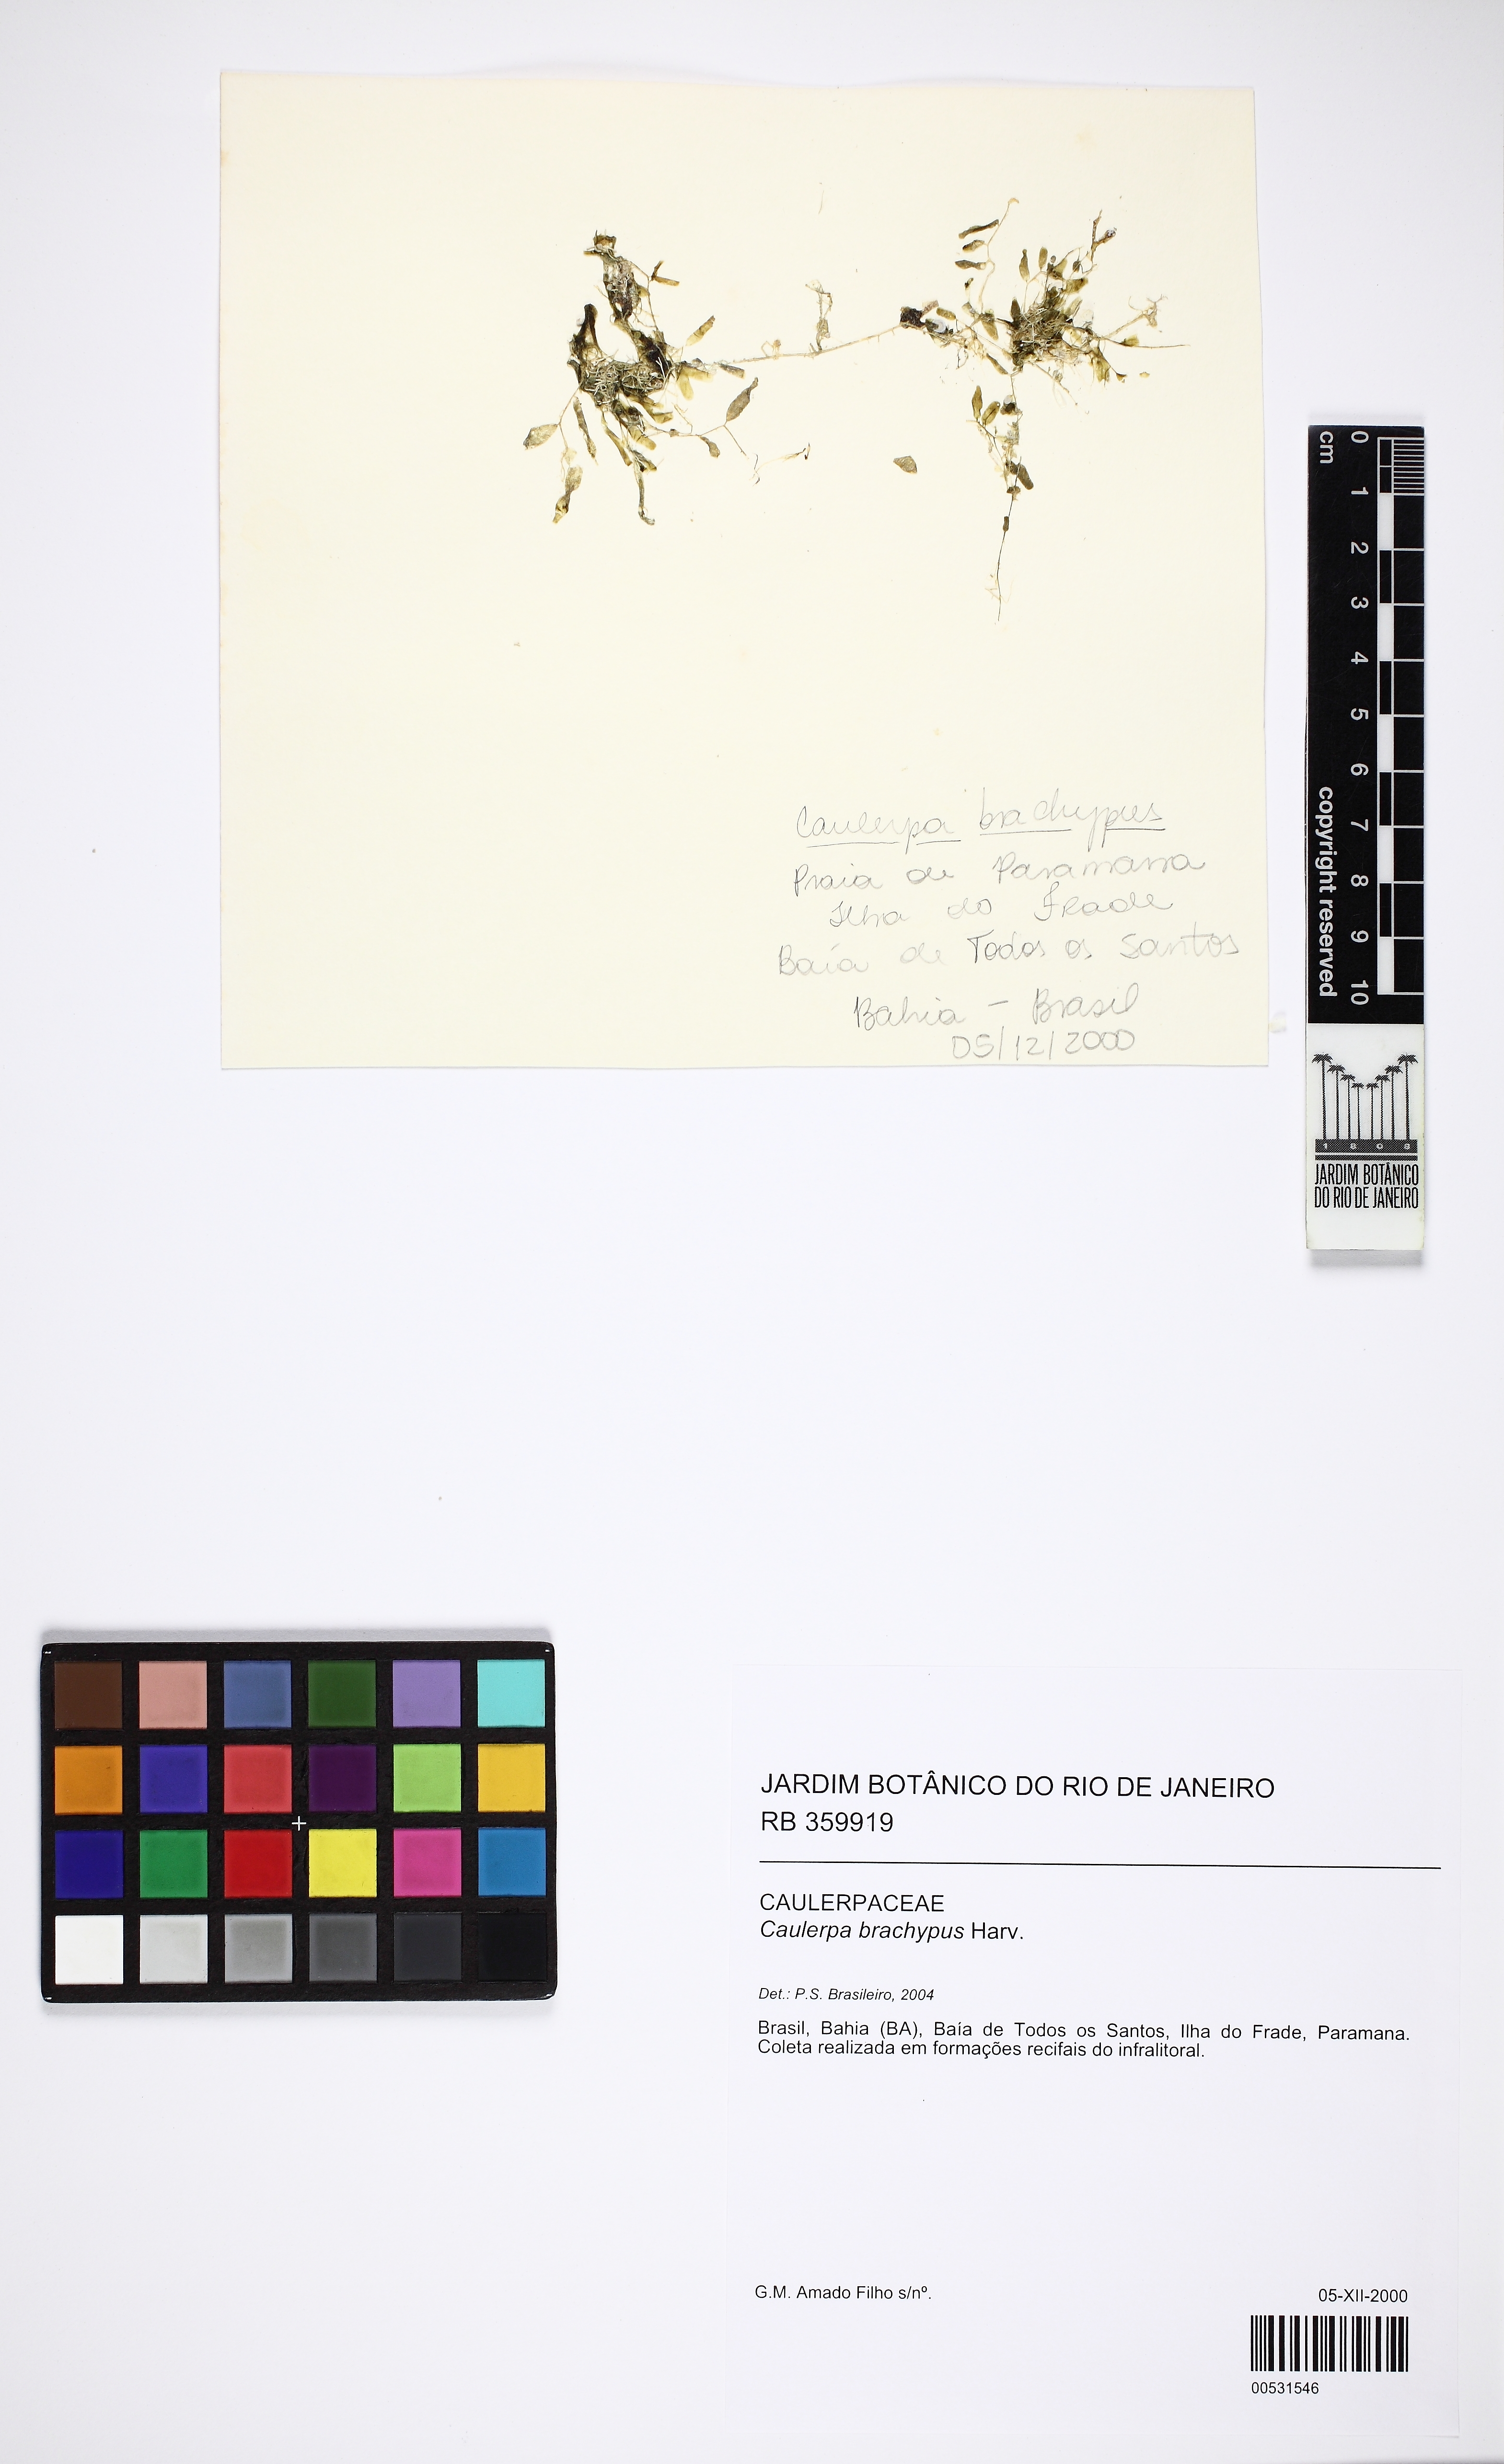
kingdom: Plantae
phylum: Chlorophyta
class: Ulvophyceae
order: Bryopsidales
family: Caulerpaceae
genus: Caulerpa
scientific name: Caulerpa brachypus
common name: Macroalgae
